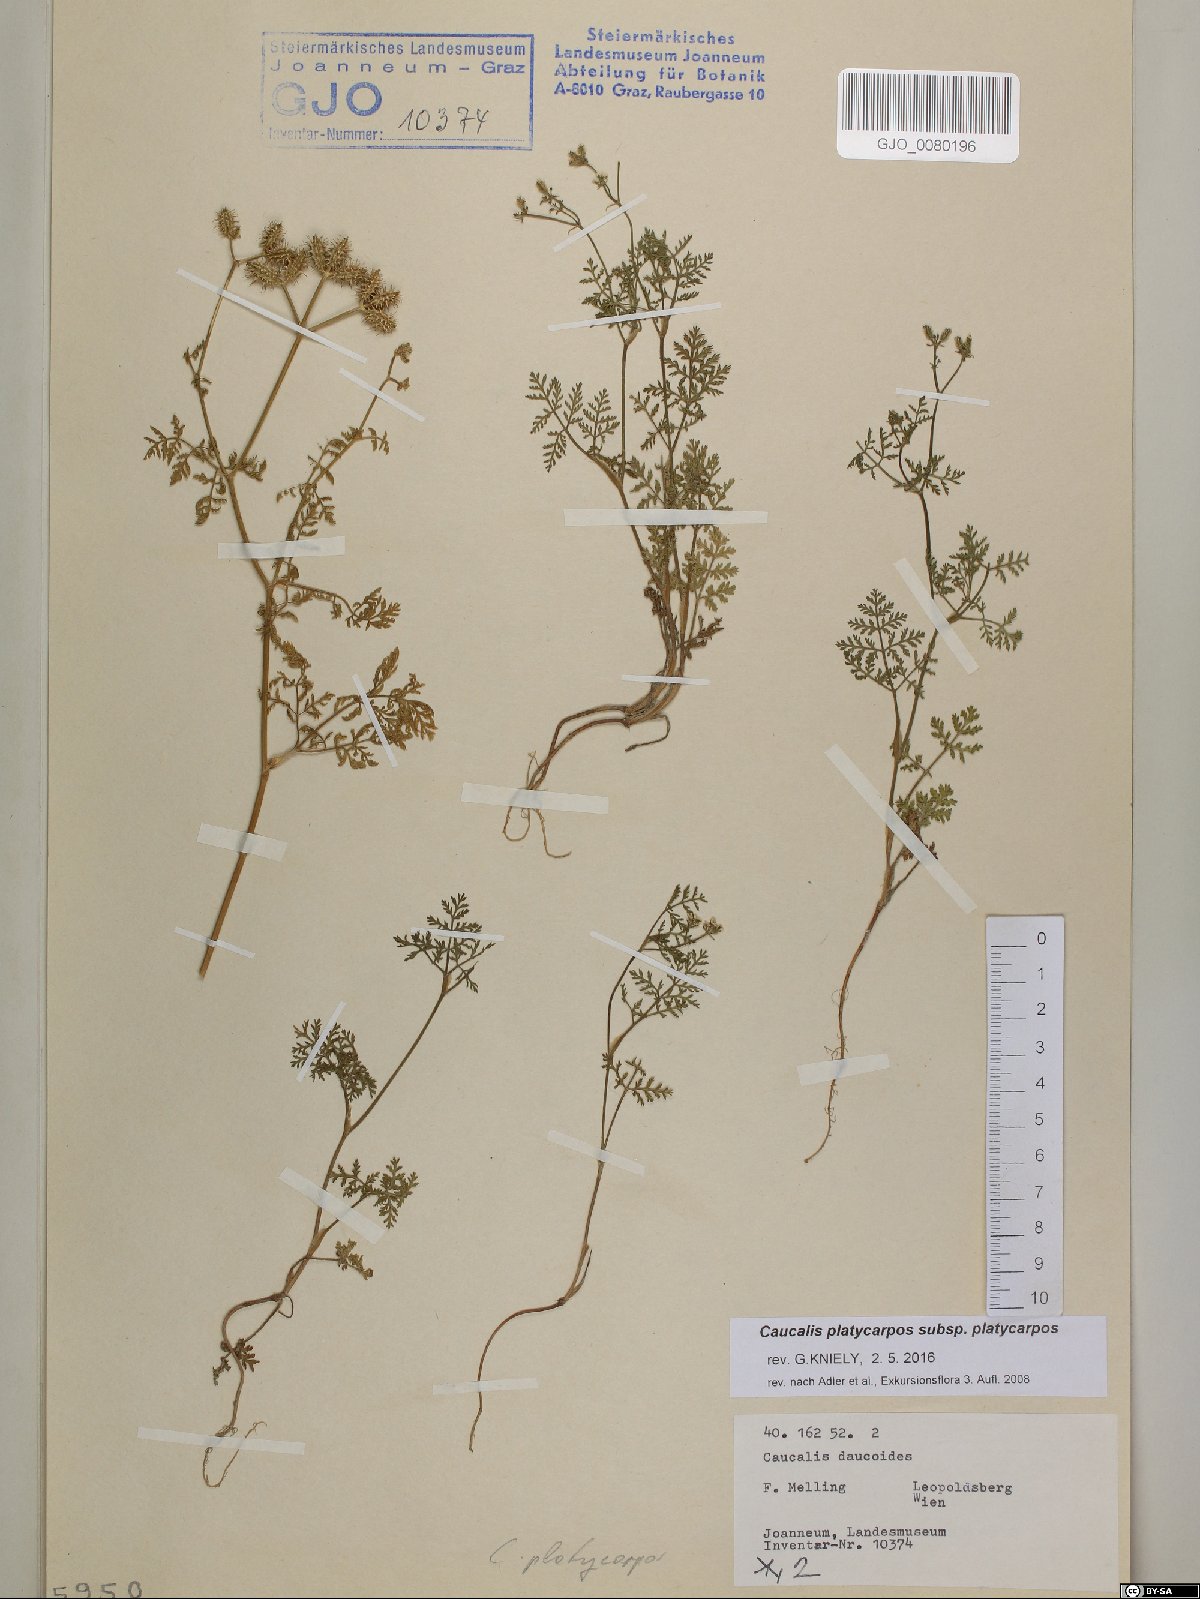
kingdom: Plantae
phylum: Tracheophyta
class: Magnoliopsida
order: Apiales
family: Apiaceae
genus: Caucalis
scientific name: Caucalis platycarpos
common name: Small bur-parsley
